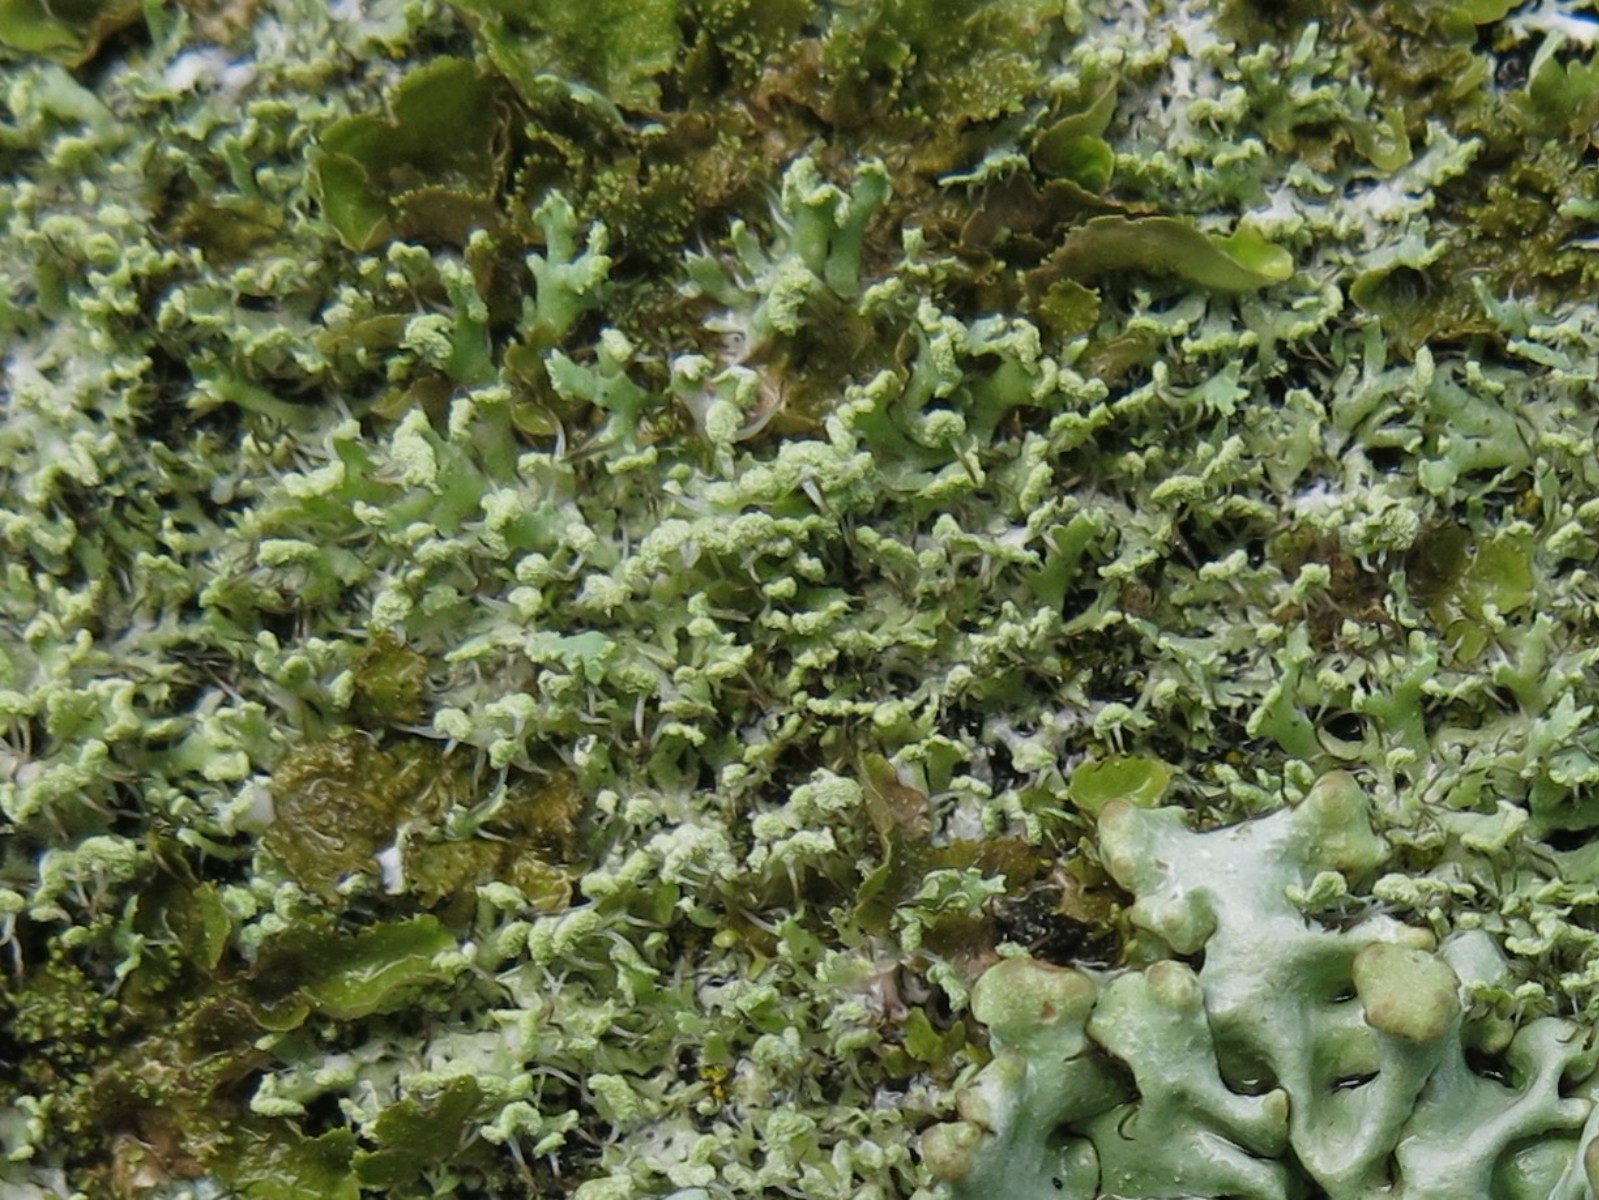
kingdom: Fungi
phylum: Ascomycota
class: Lecanoromycetes
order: Caliciales
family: Physciaceae
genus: Physcia
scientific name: Physcia tenella
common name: spæd rosetlav
